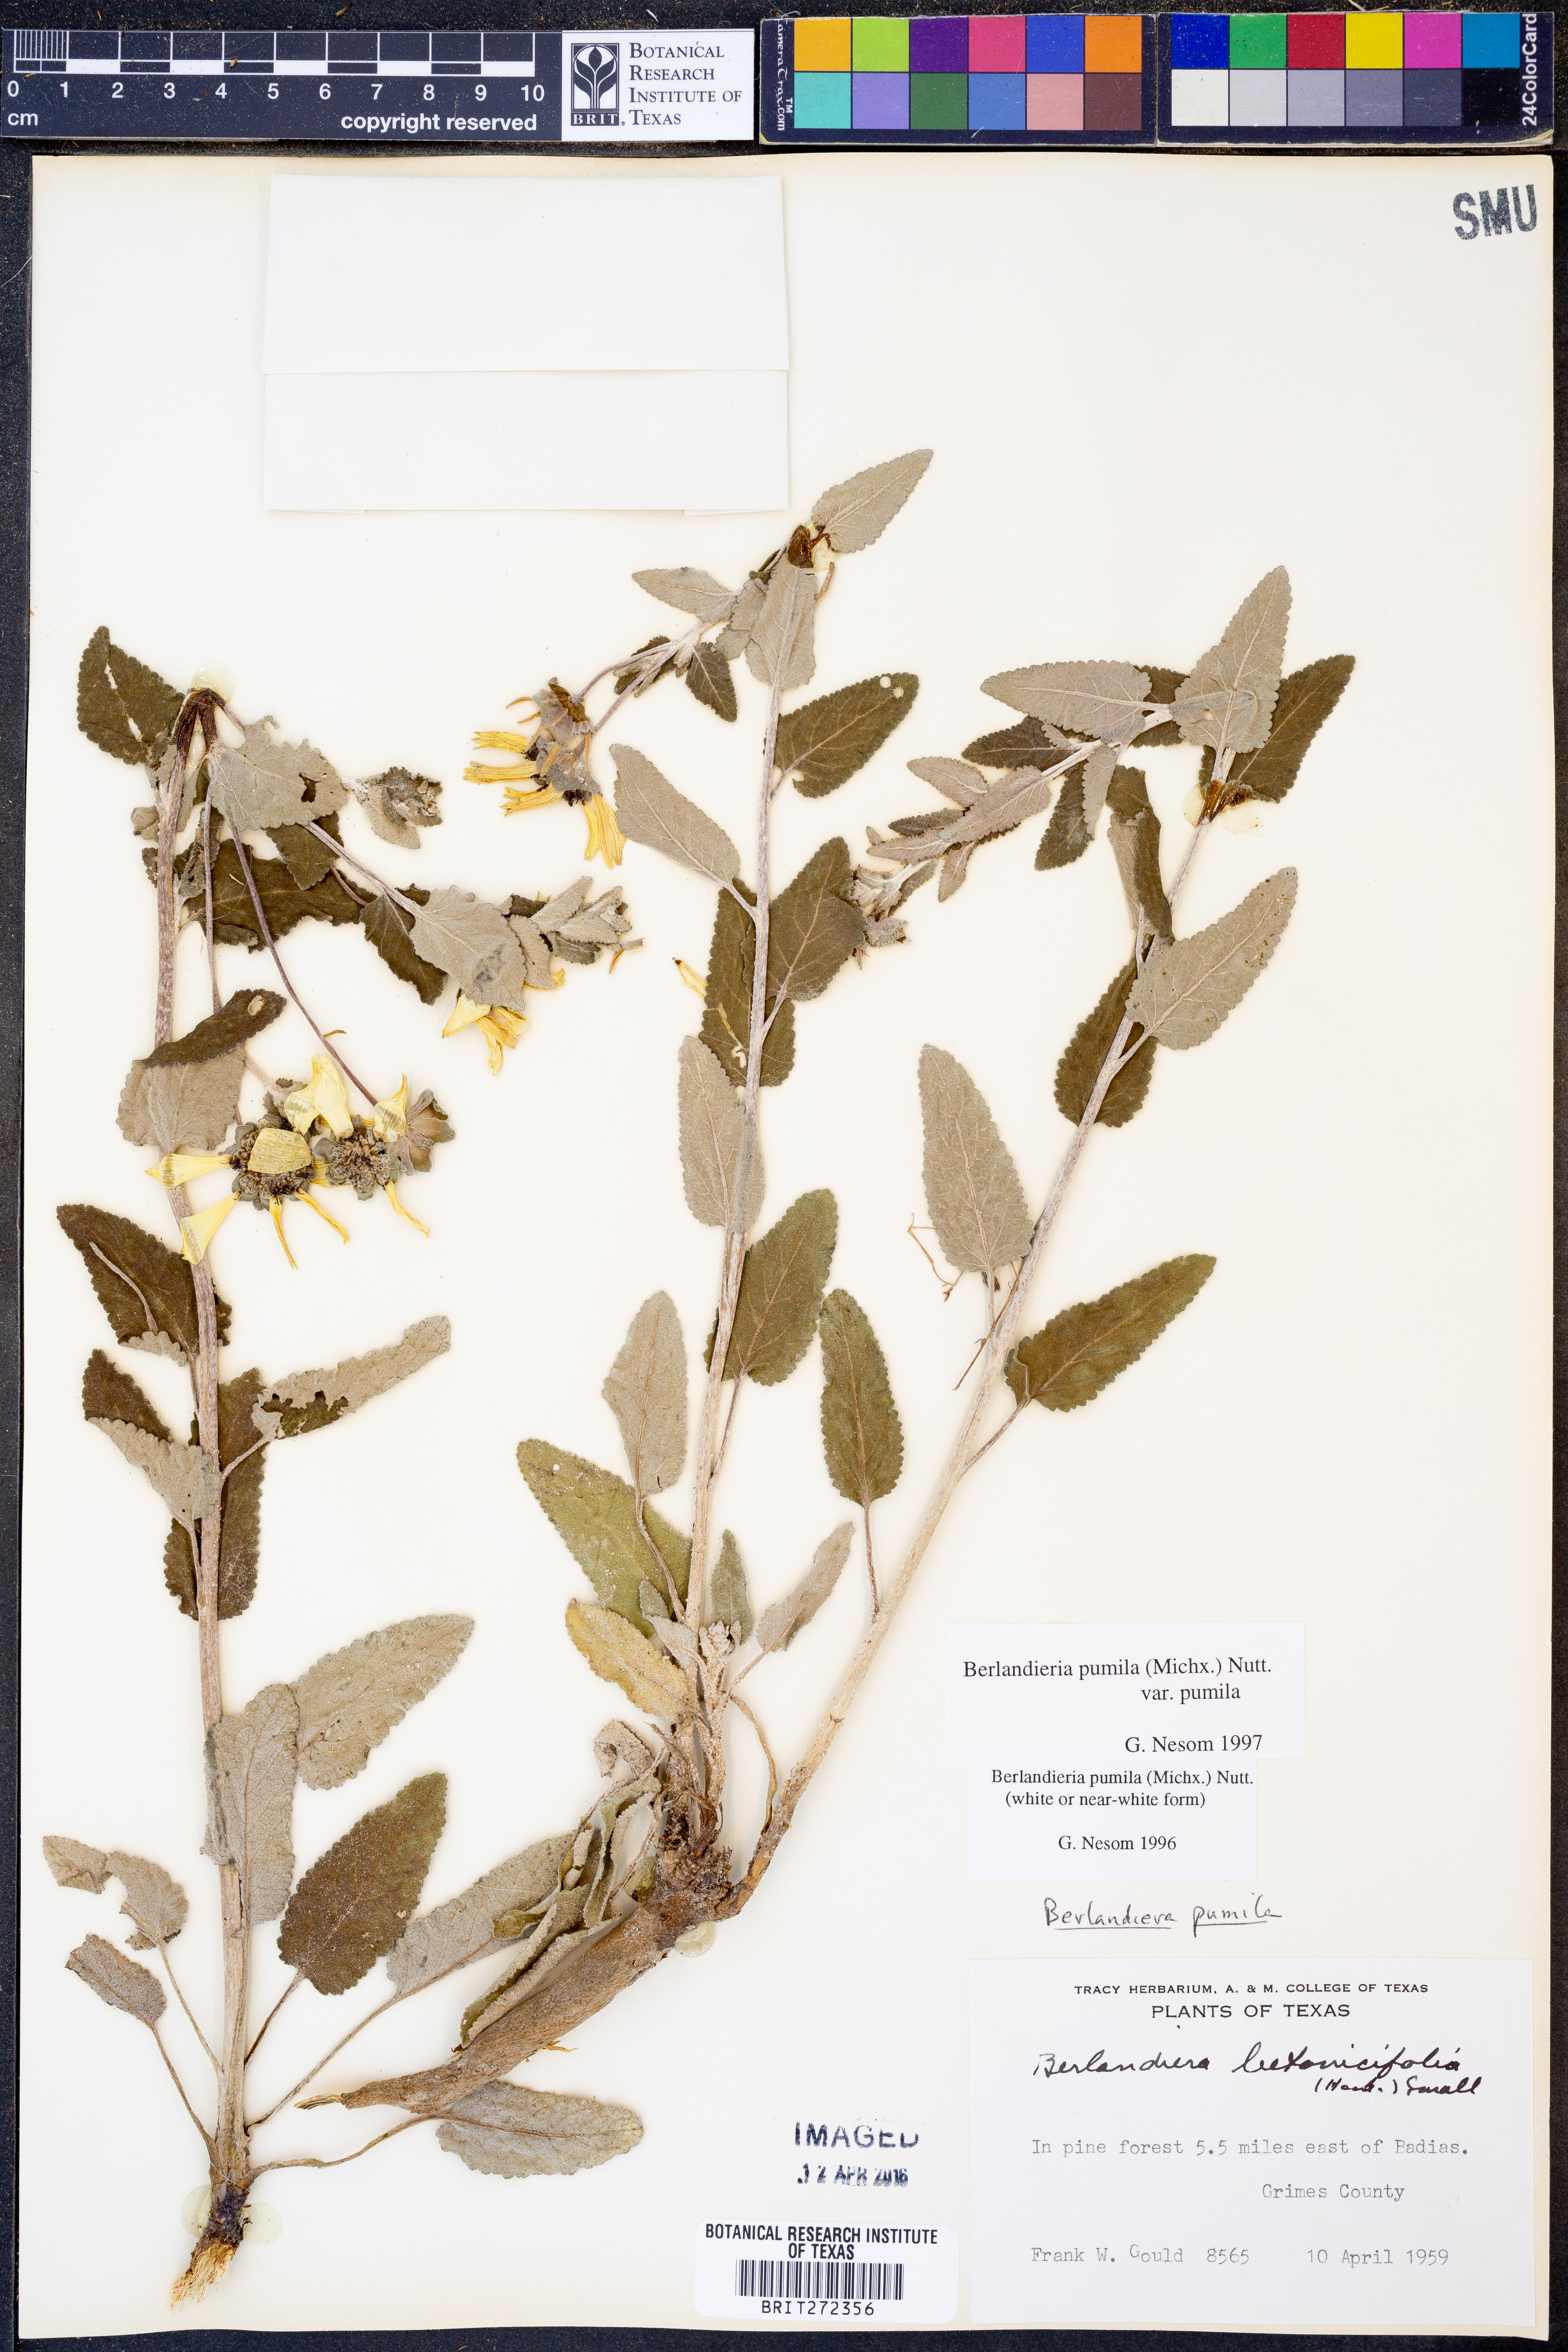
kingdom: Plantae
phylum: Tracheophyta
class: Magnoliopsida
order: Asterales
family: Asteraceae
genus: Berlandiera
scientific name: Berlandiera pumila
